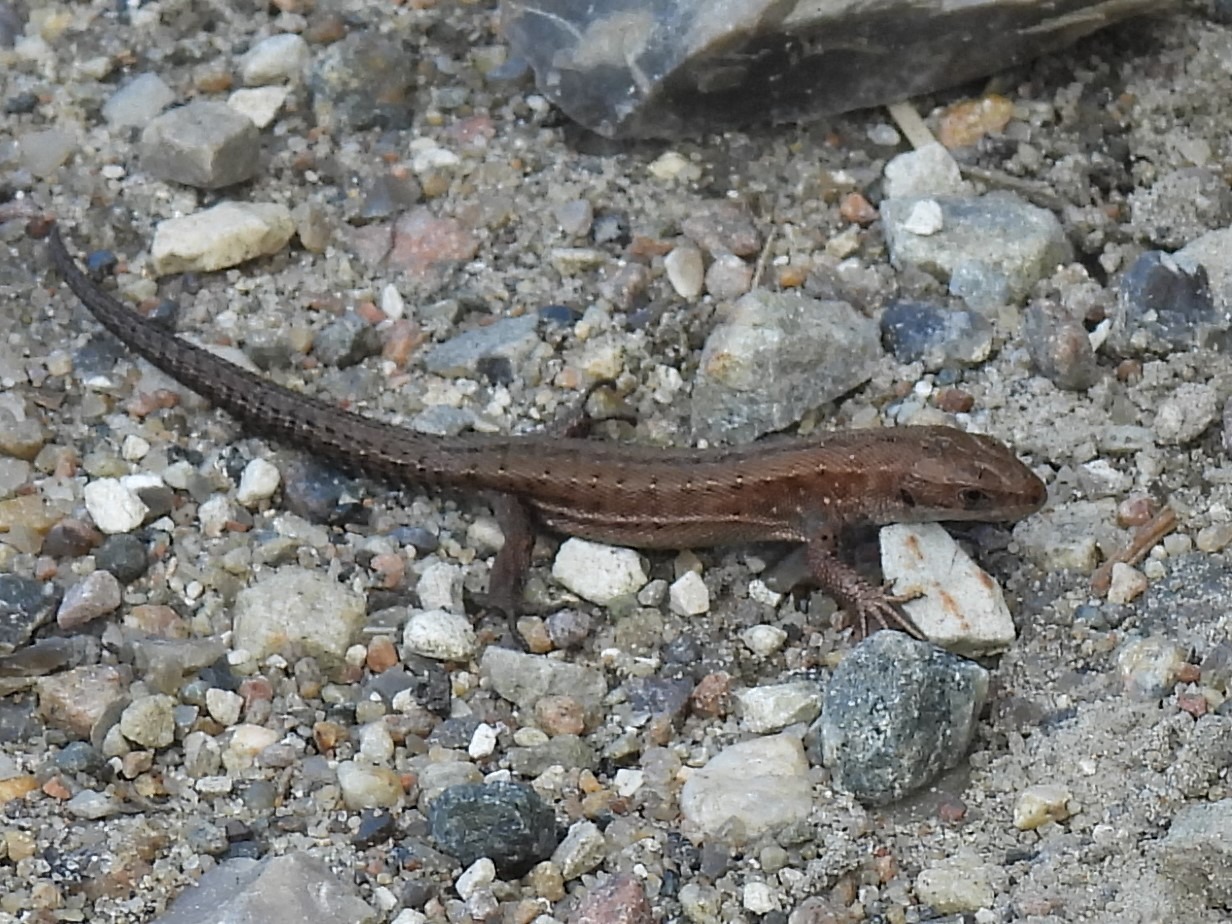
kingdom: Animalia
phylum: Chordata
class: Squamata
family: Lacertidae
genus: Zootoca
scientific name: Zootoca vivipara
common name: Skovfirben
